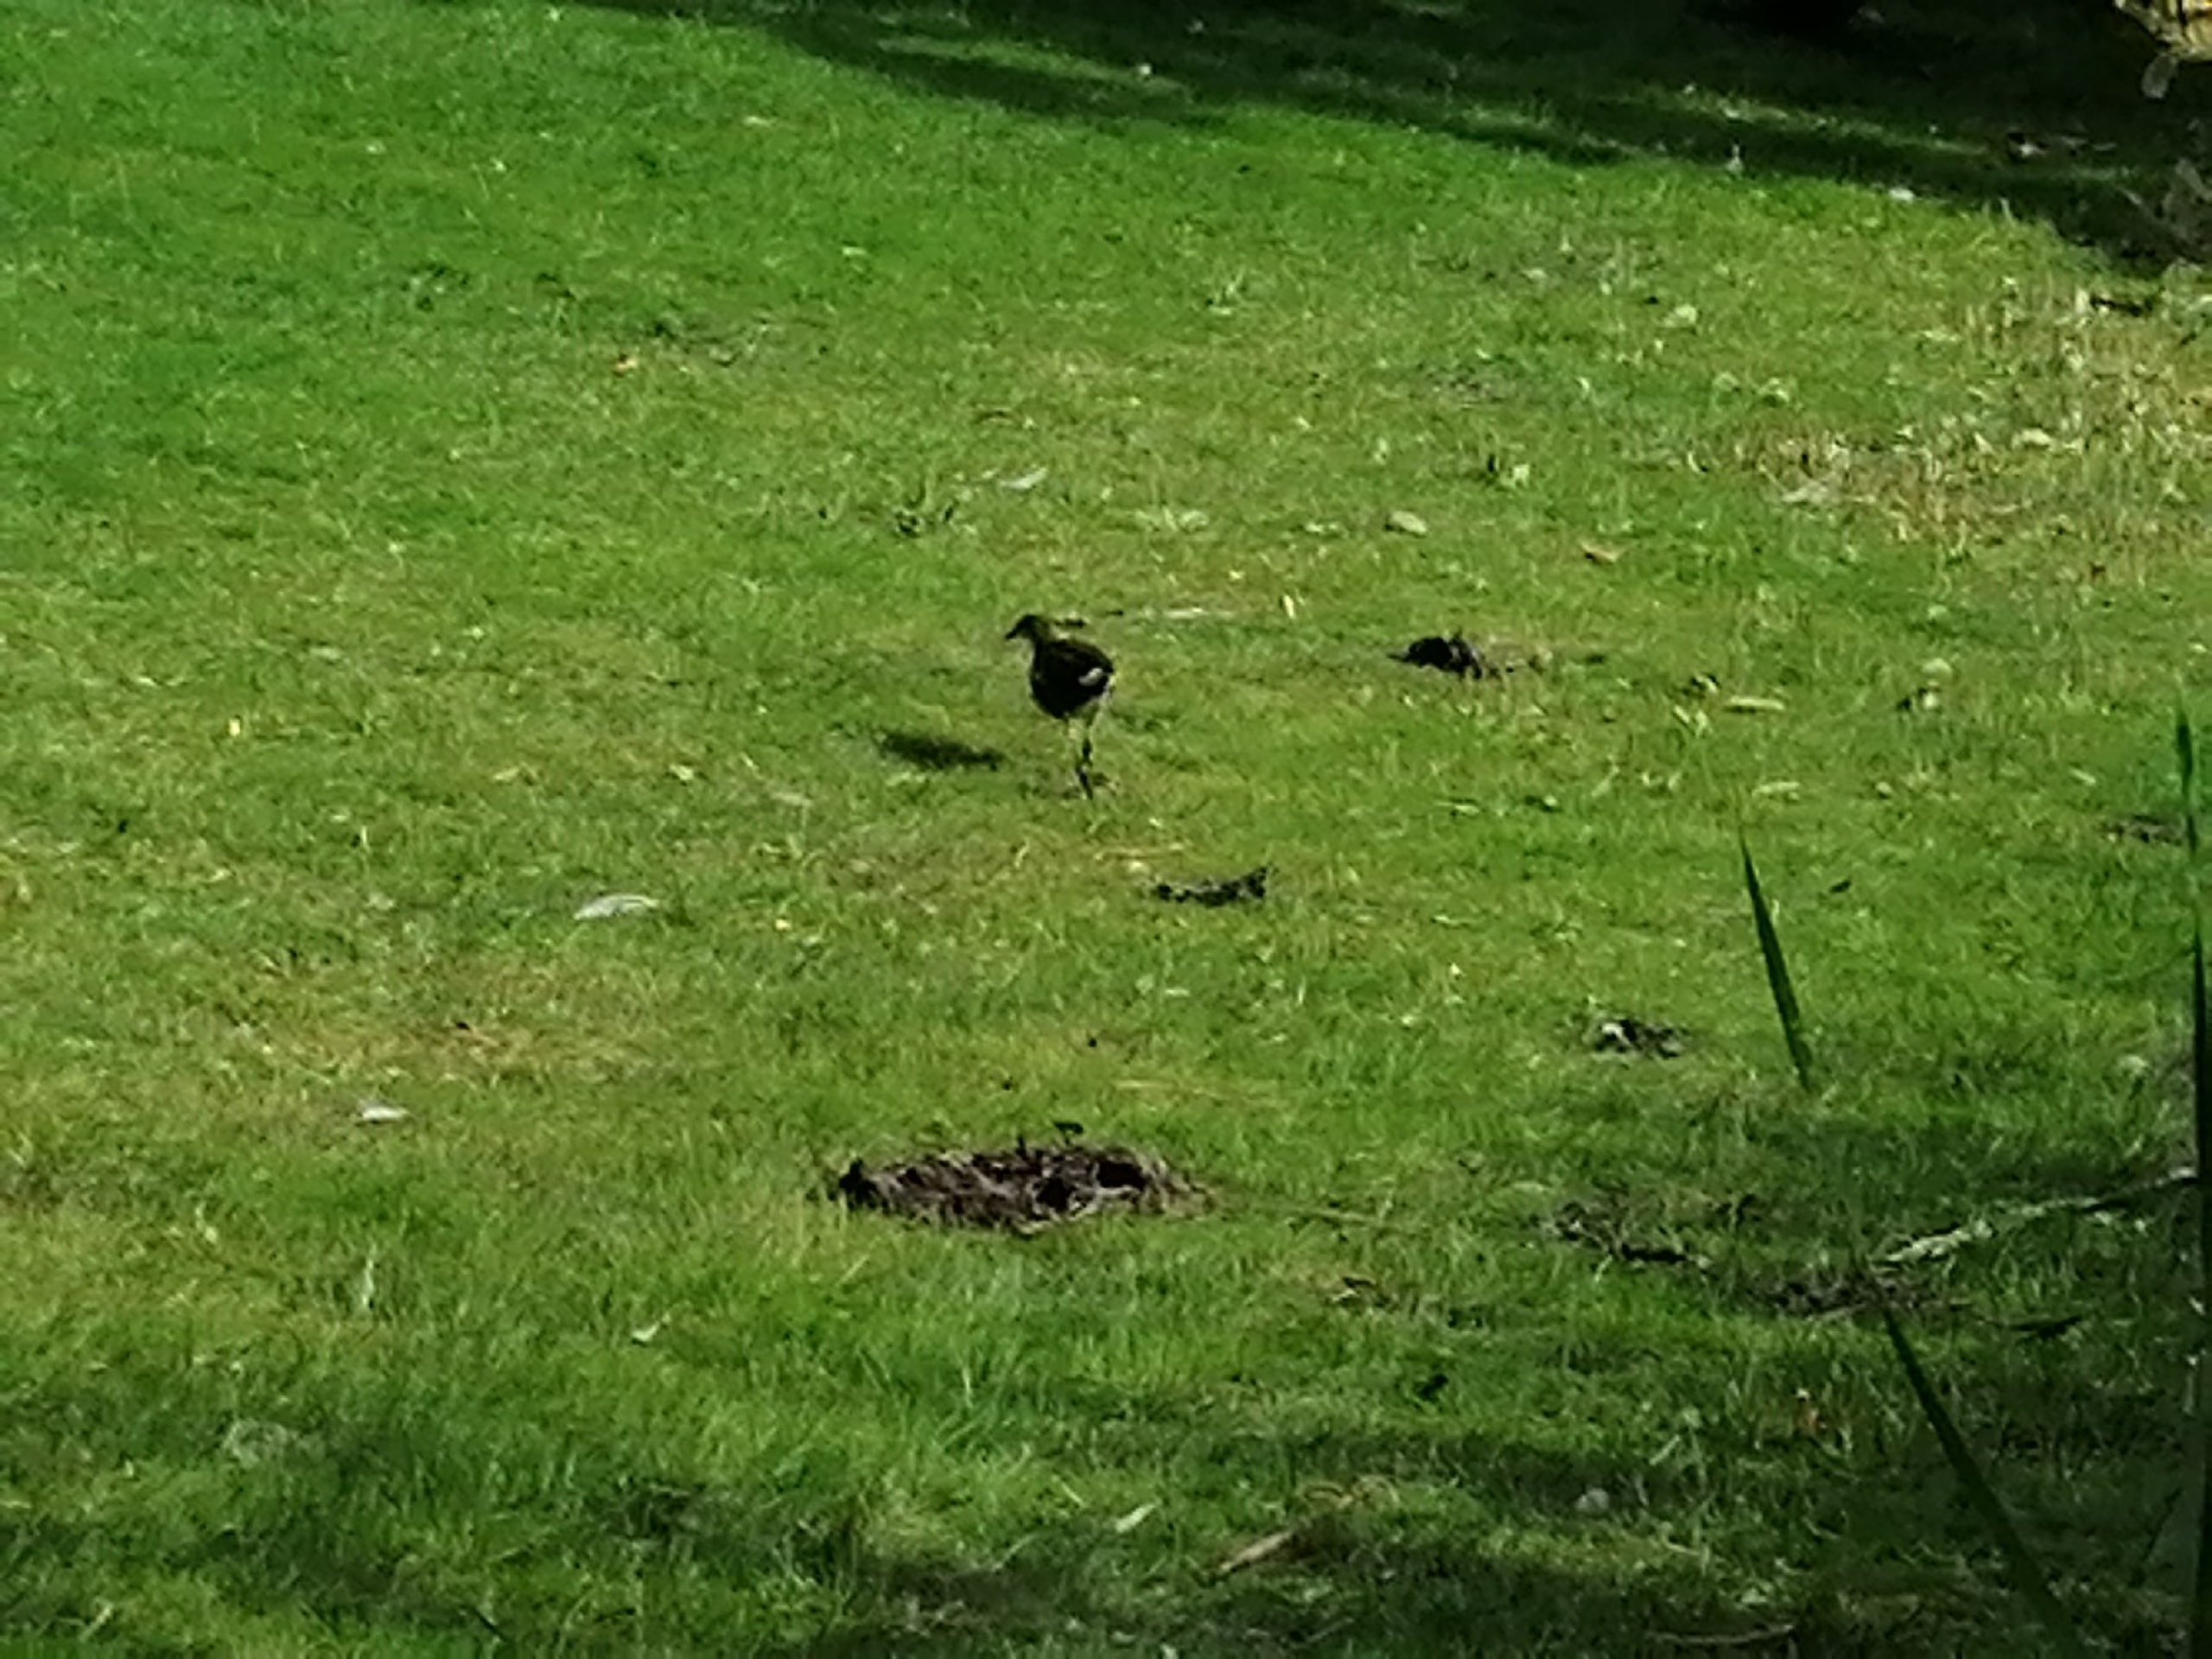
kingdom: Animalia
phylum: Chordata
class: Aves
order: Gruiformes
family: Rallidae
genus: Gallinula
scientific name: Gallinula chloropus
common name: Grønbenet rørhøne
